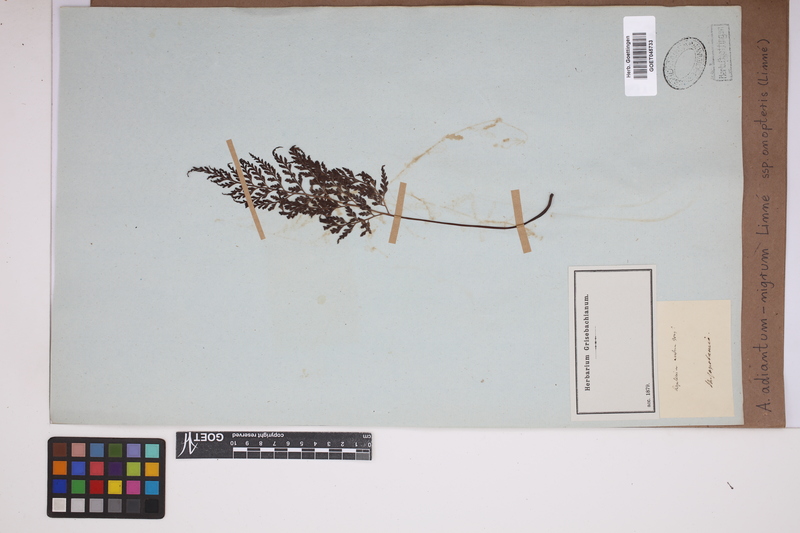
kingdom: Plantae
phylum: Tracheophyta
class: Polypodiopsida
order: Polypodiales
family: Aspleniaceae
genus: Asplenium
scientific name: Asplenium onopteris
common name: Irish spleenwort
